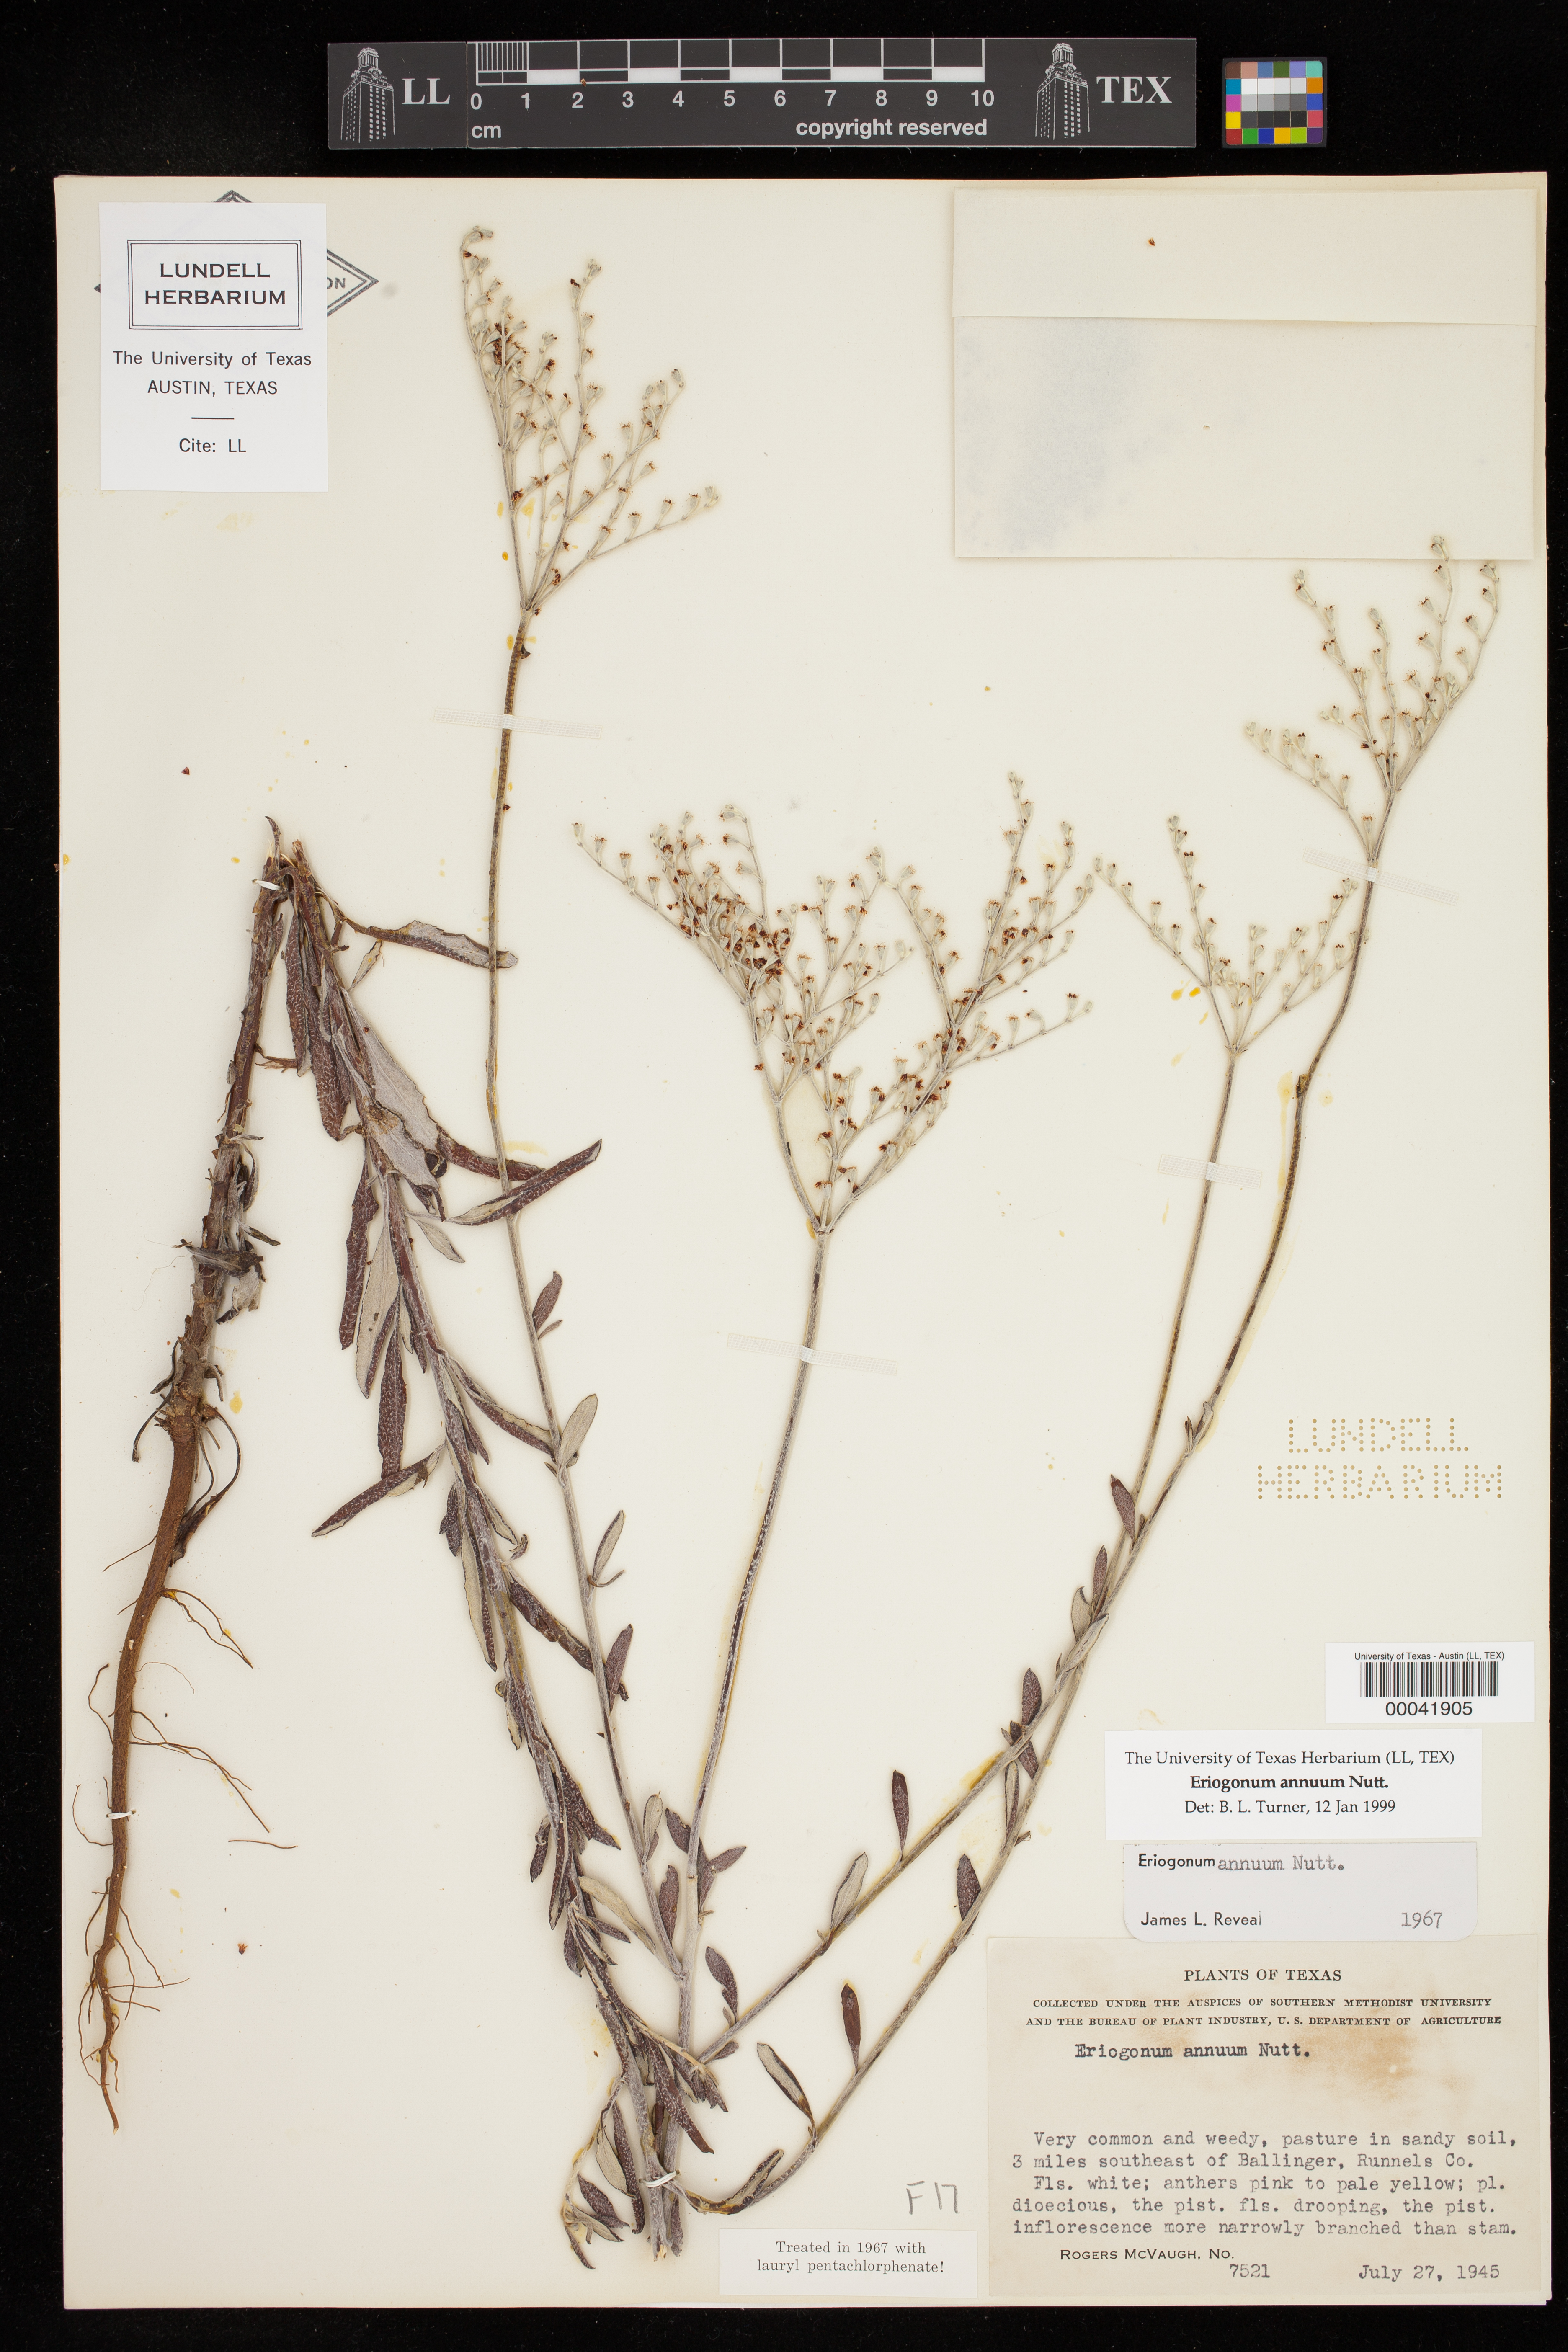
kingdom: Plantae
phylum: Tracheophyta
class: Magnoliopsida
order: Caryophyllales
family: Polygonaceae
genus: Eriogonum
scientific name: Eriogonum annuum
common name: Annual wild buckwheat
